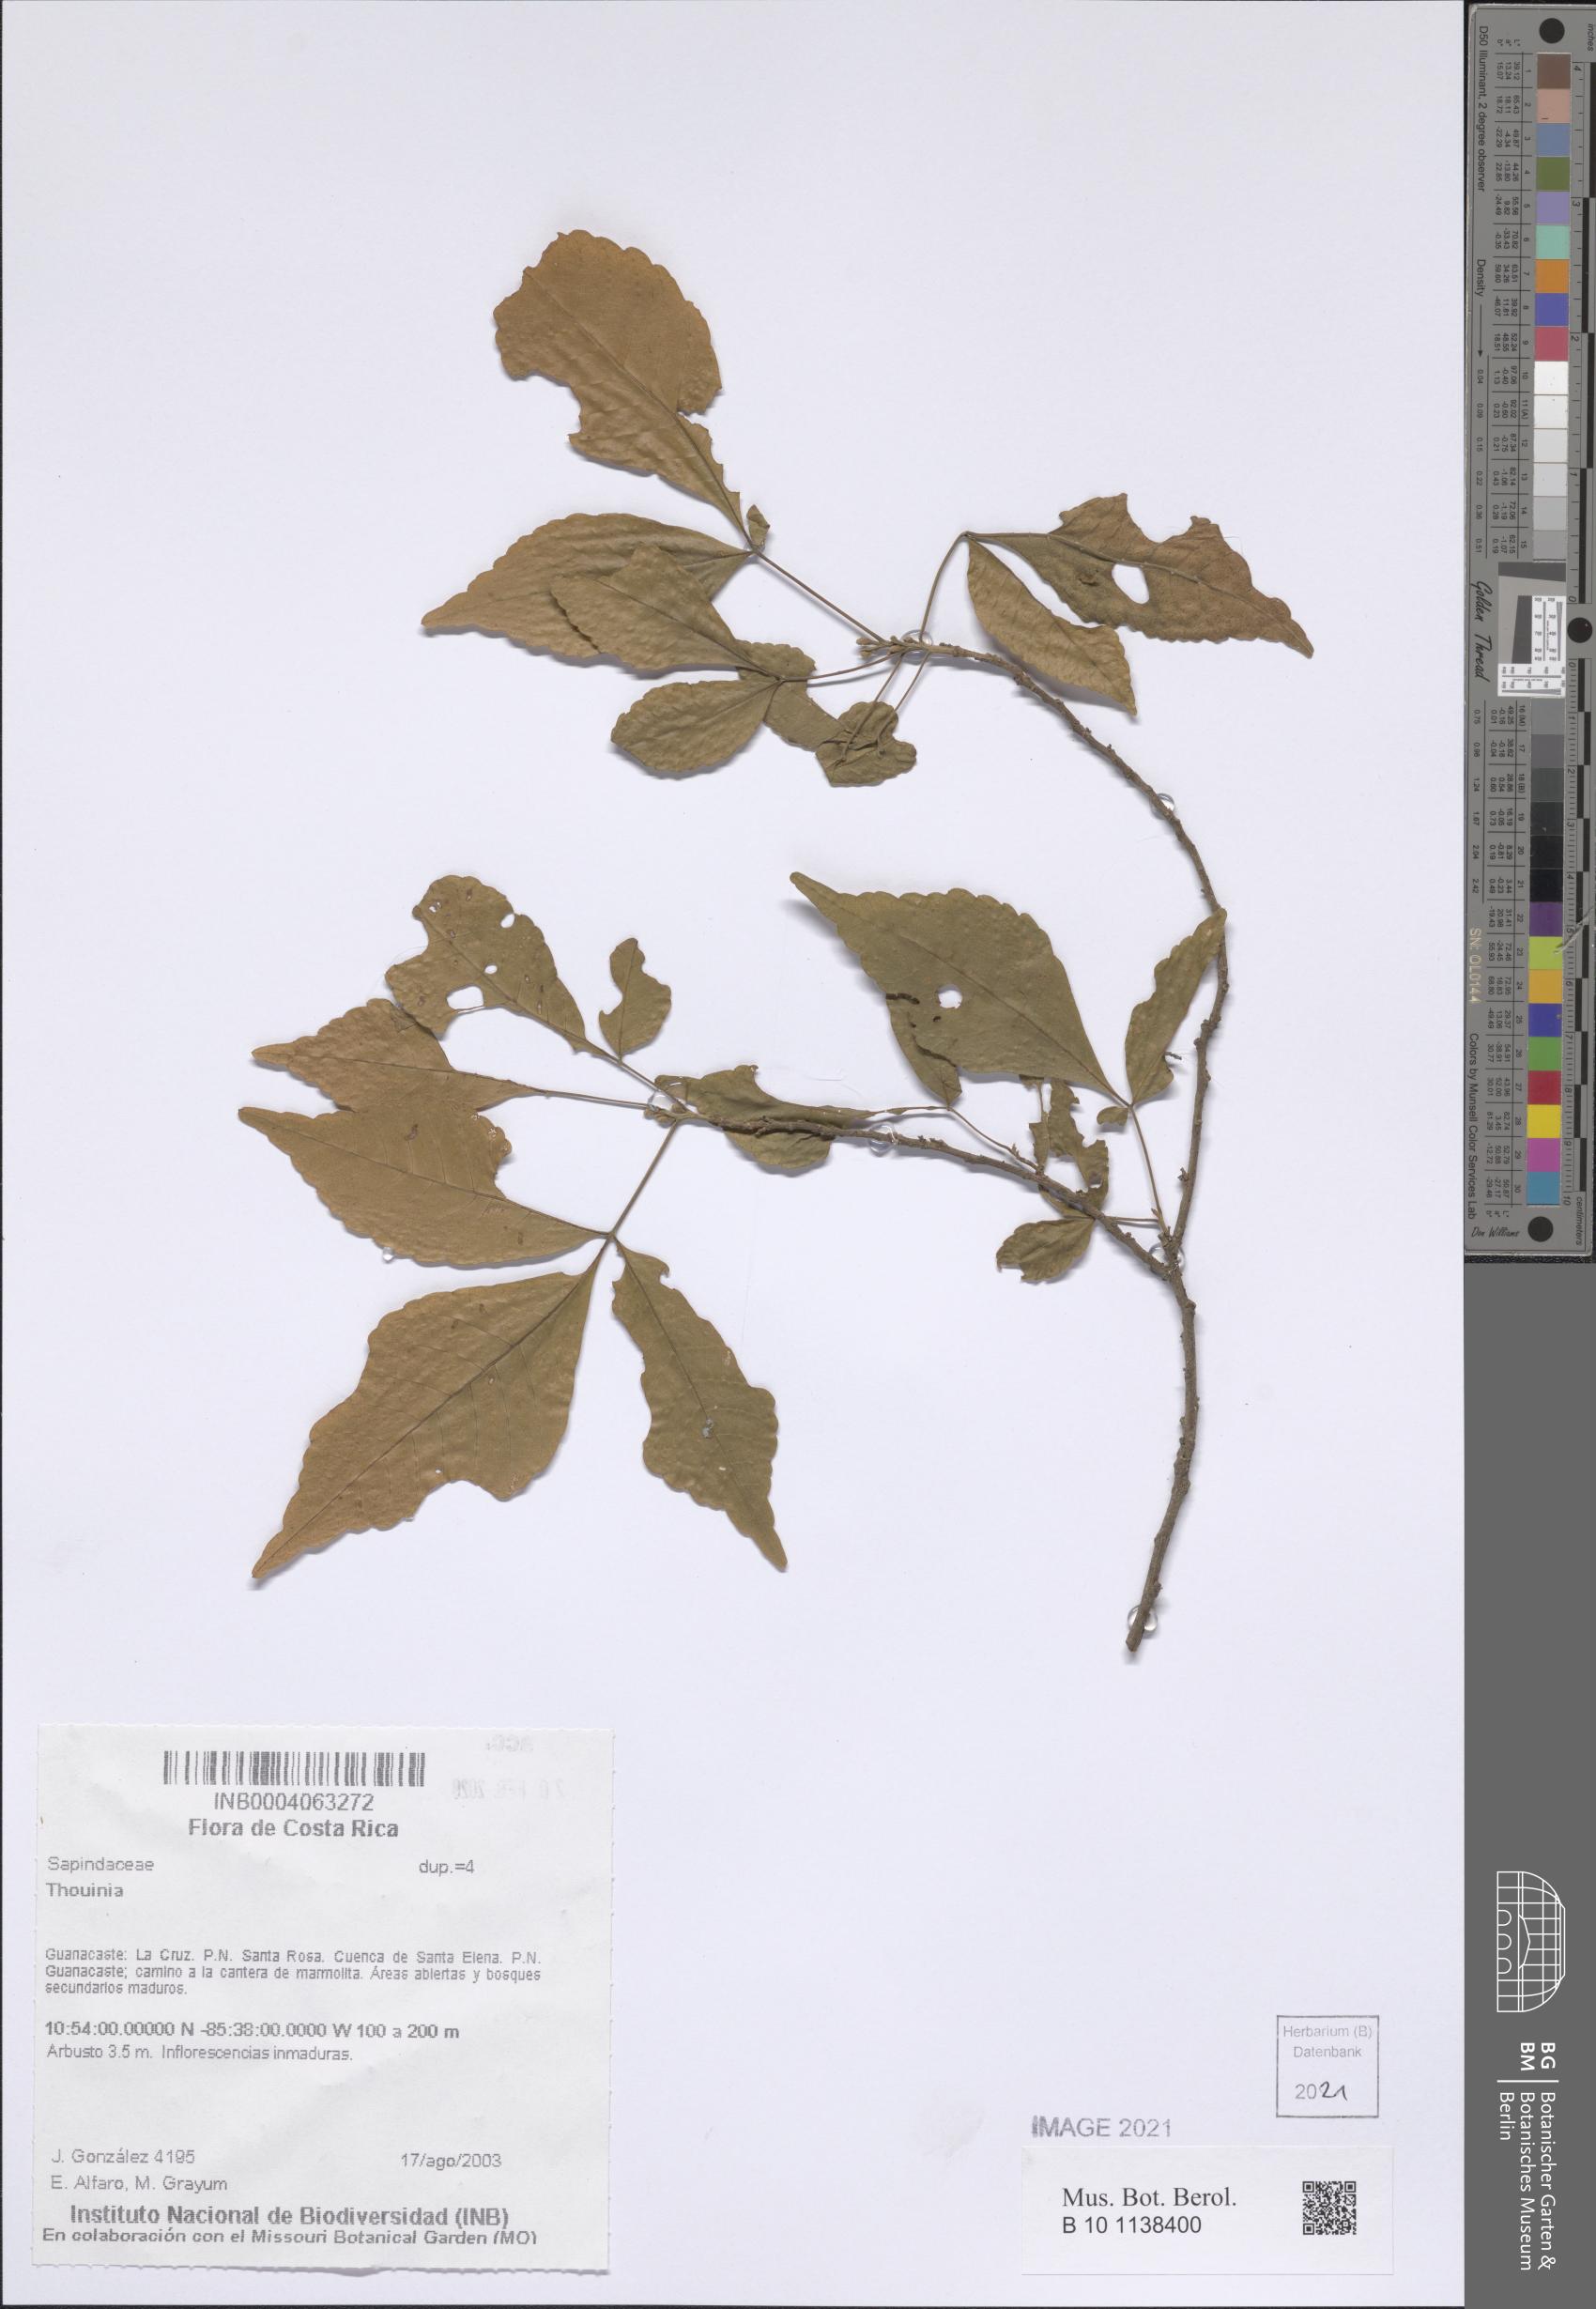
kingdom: Plantae
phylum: Tracheophyta
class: Magnoliopsida
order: Sapindales
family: Sapindaceae
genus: Thouinia
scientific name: Thouinia
